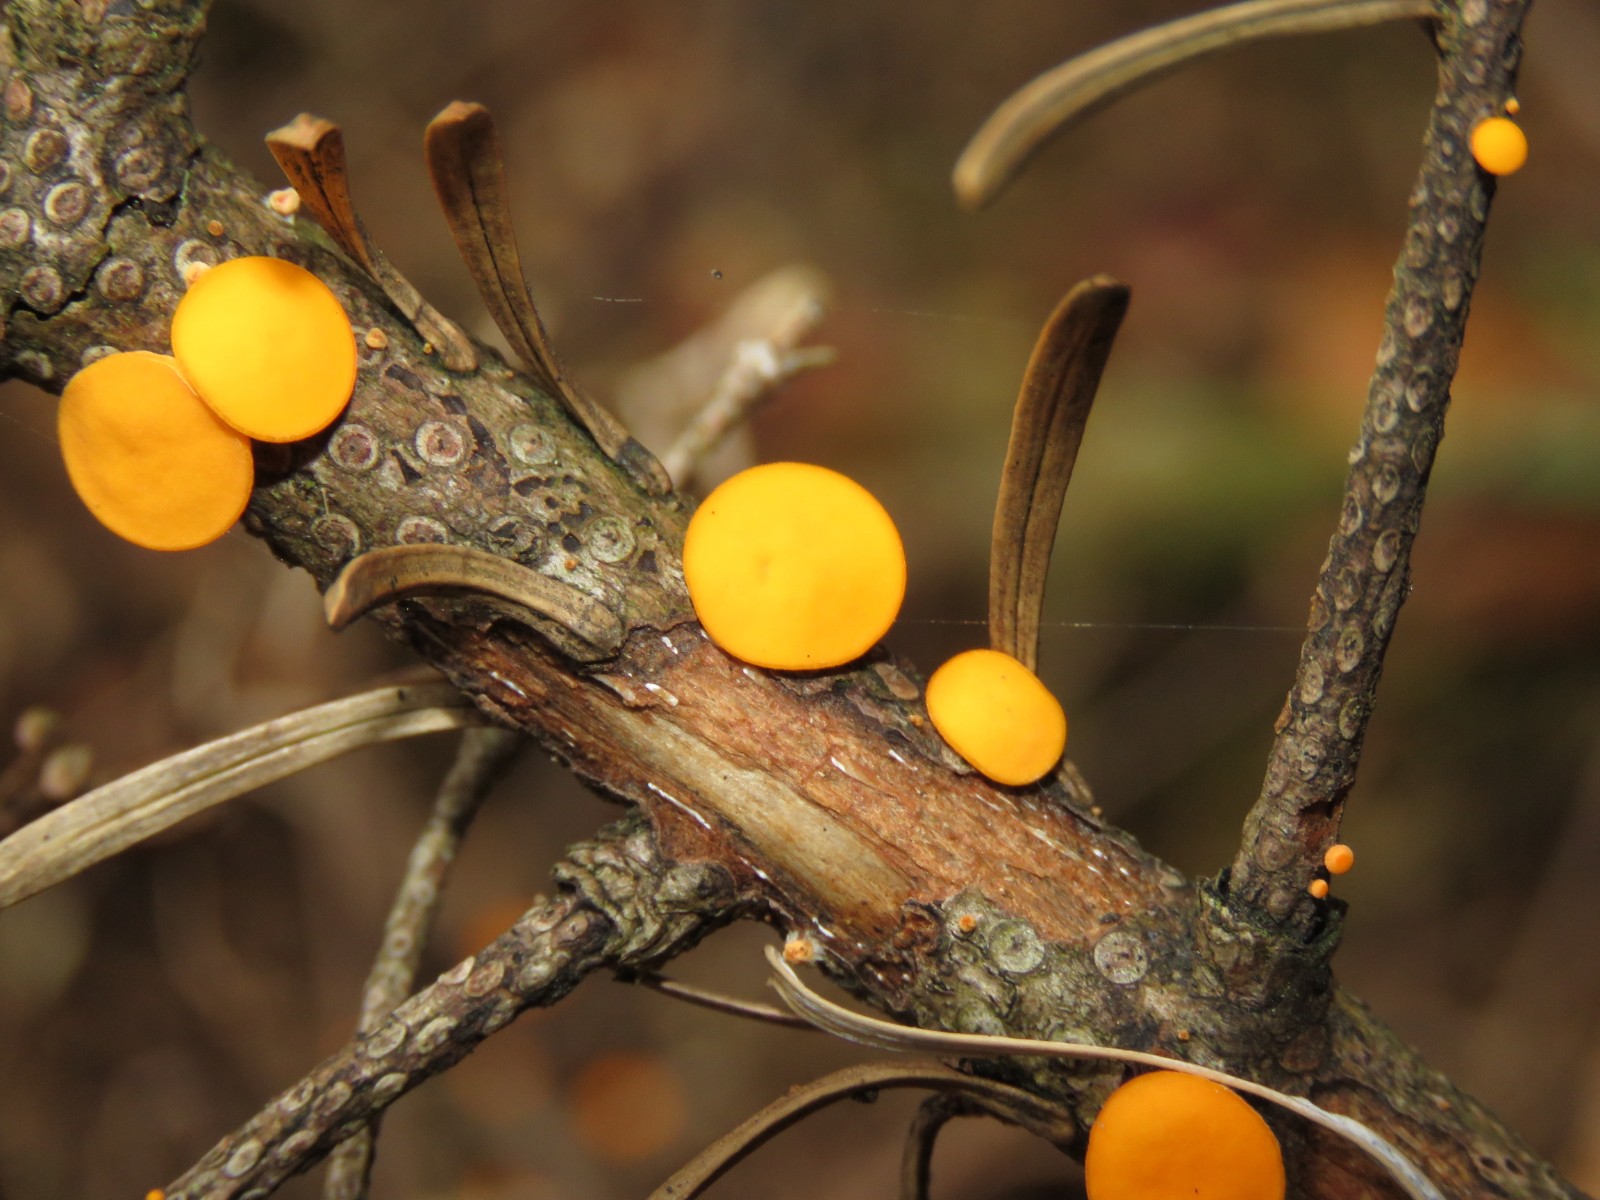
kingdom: Fungi
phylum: Ascomycota
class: Pezizomycetes
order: Pezizales
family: Sarcoscyphaceae
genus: Pithya
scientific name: Pithya vulgaris
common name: stor dukatbæger
